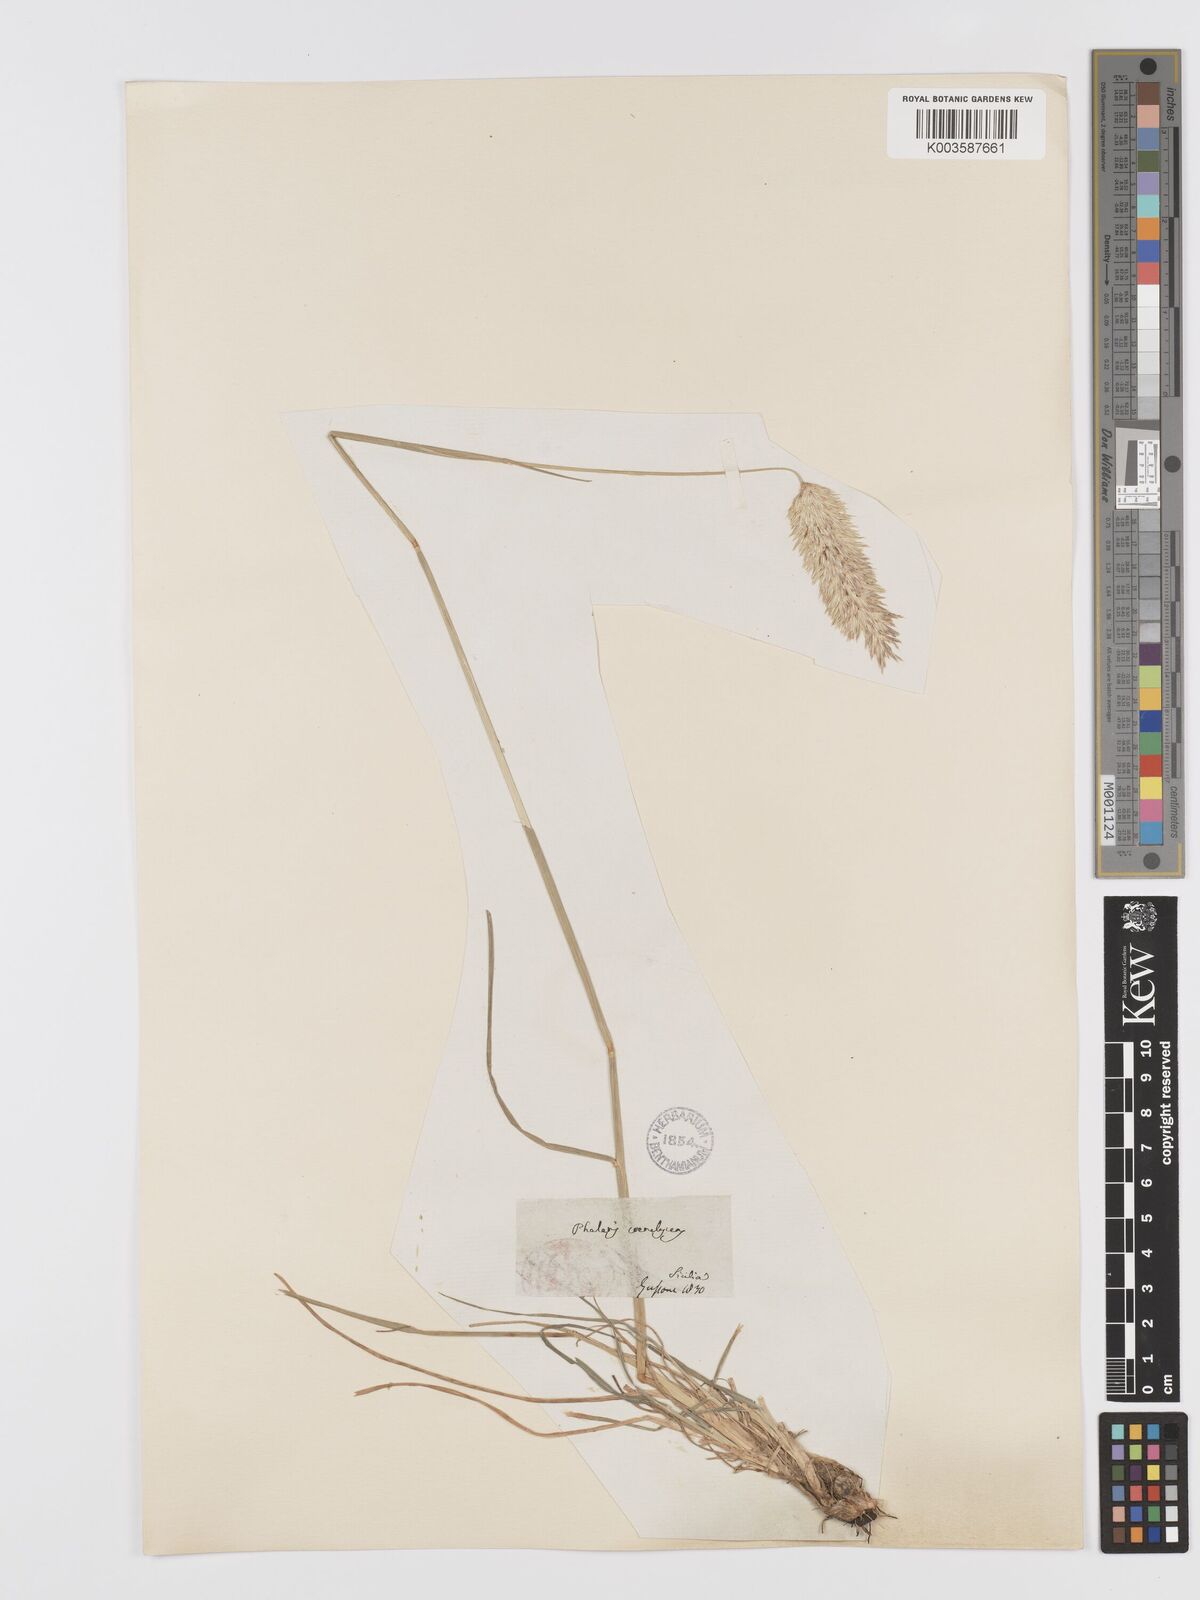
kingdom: Plantae
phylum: Tracheophyta
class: Liliopsida
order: Poales
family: Poaceae
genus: Phalaris
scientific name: Phalaris coerulescens
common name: Sunolgrass
